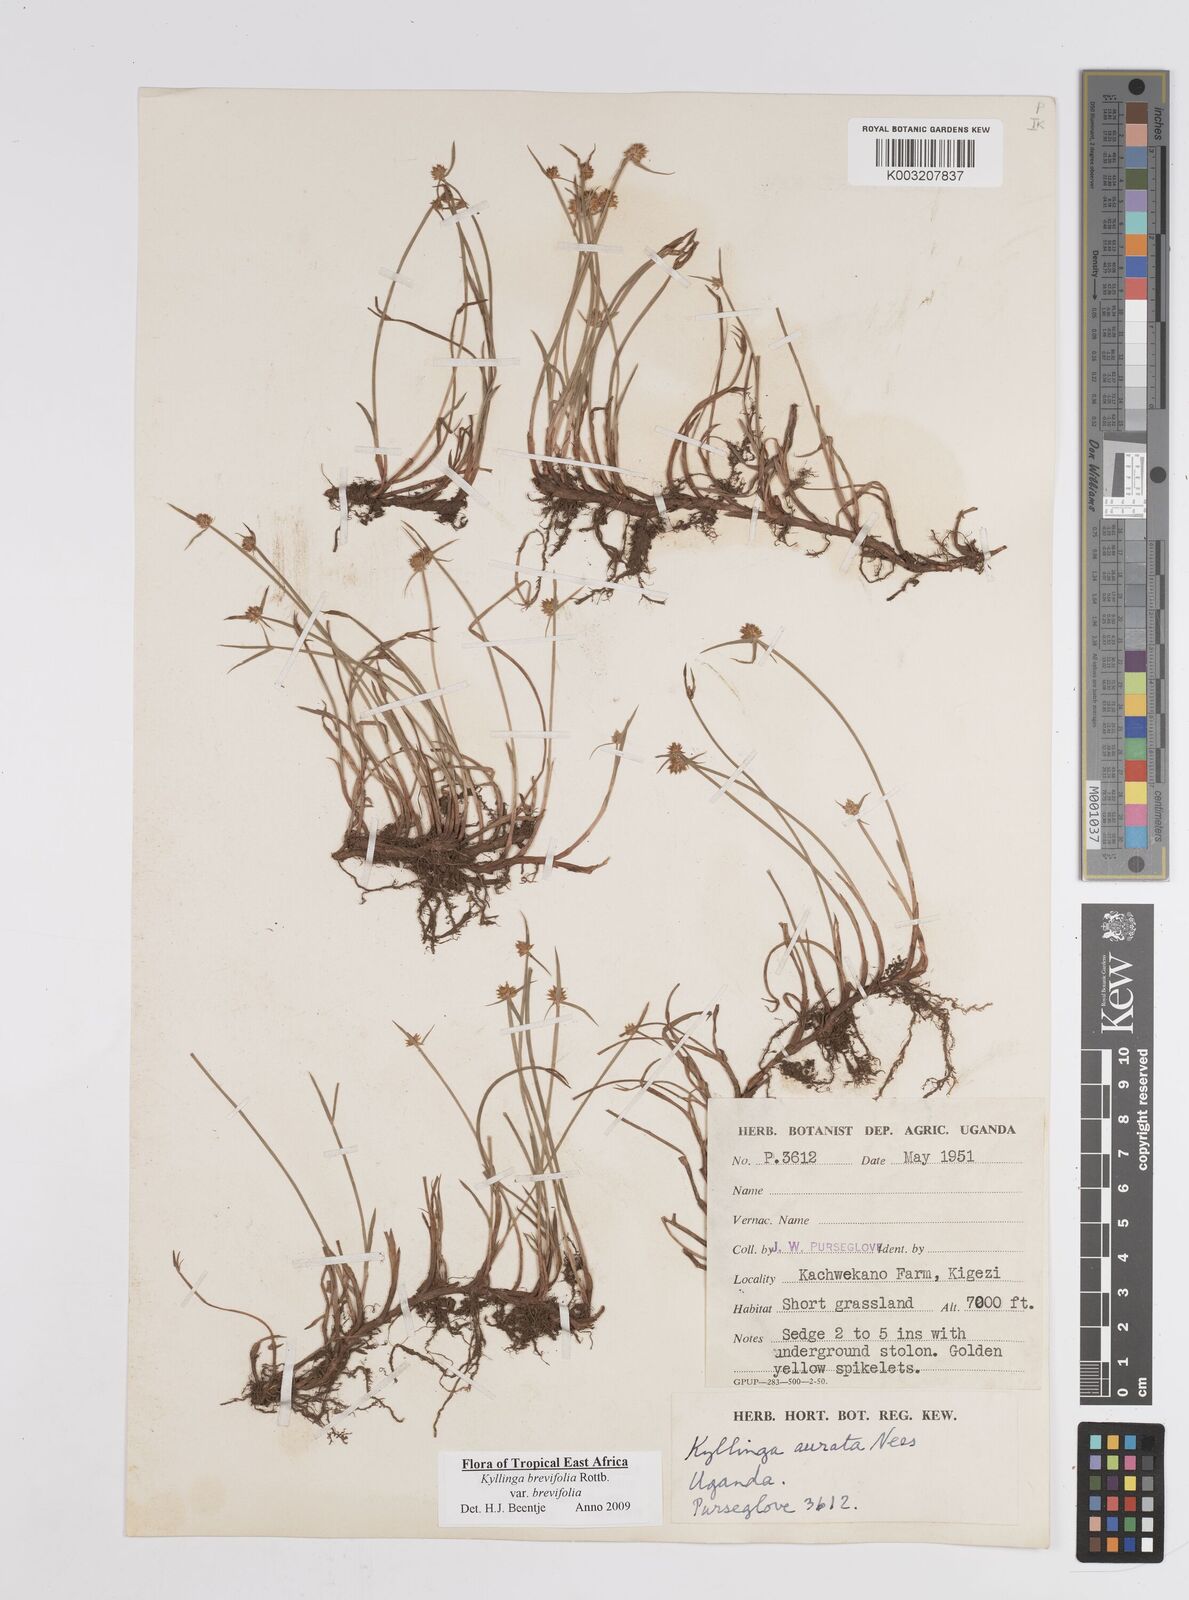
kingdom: Plantae
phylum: Tracheophyta
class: Liliopsida
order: Poales
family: Cyperaceae
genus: Cyperus
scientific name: Cyperus erectus
